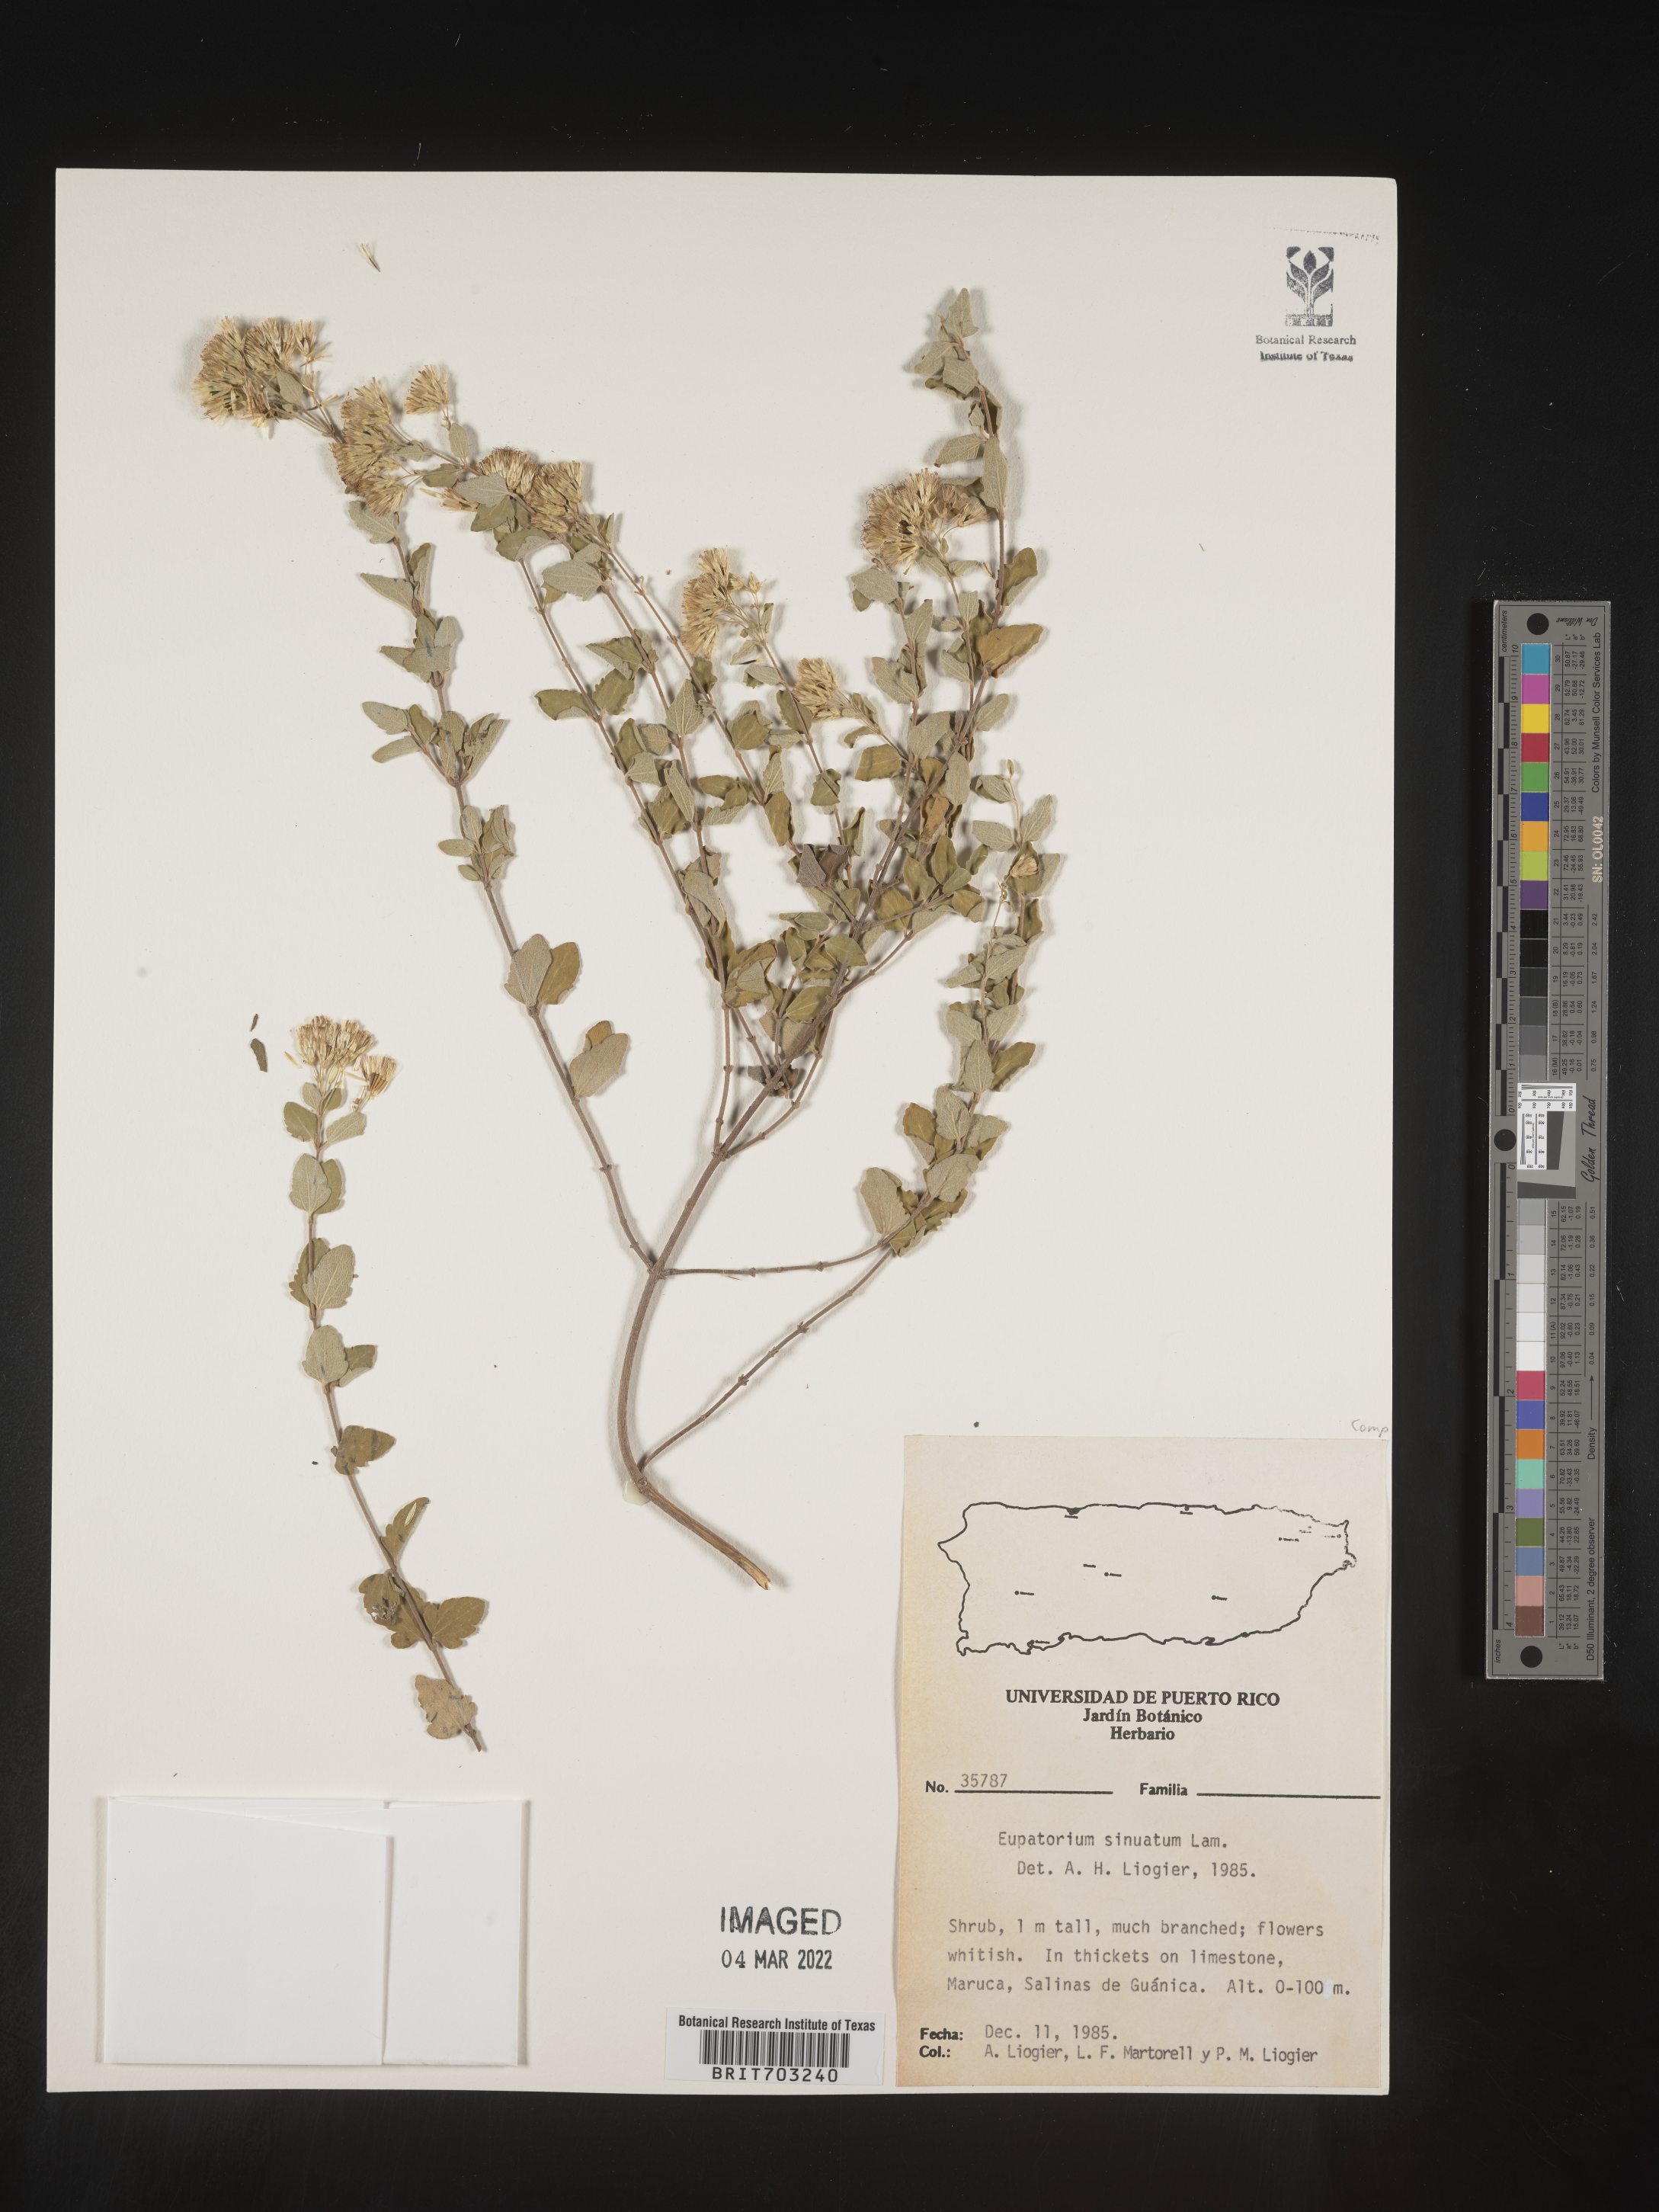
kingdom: Plantae
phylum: Tracheophyta
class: Magnoliopsida
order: Asterales
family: Asteraceae
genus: Eupatorium
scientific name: Eupatorium
